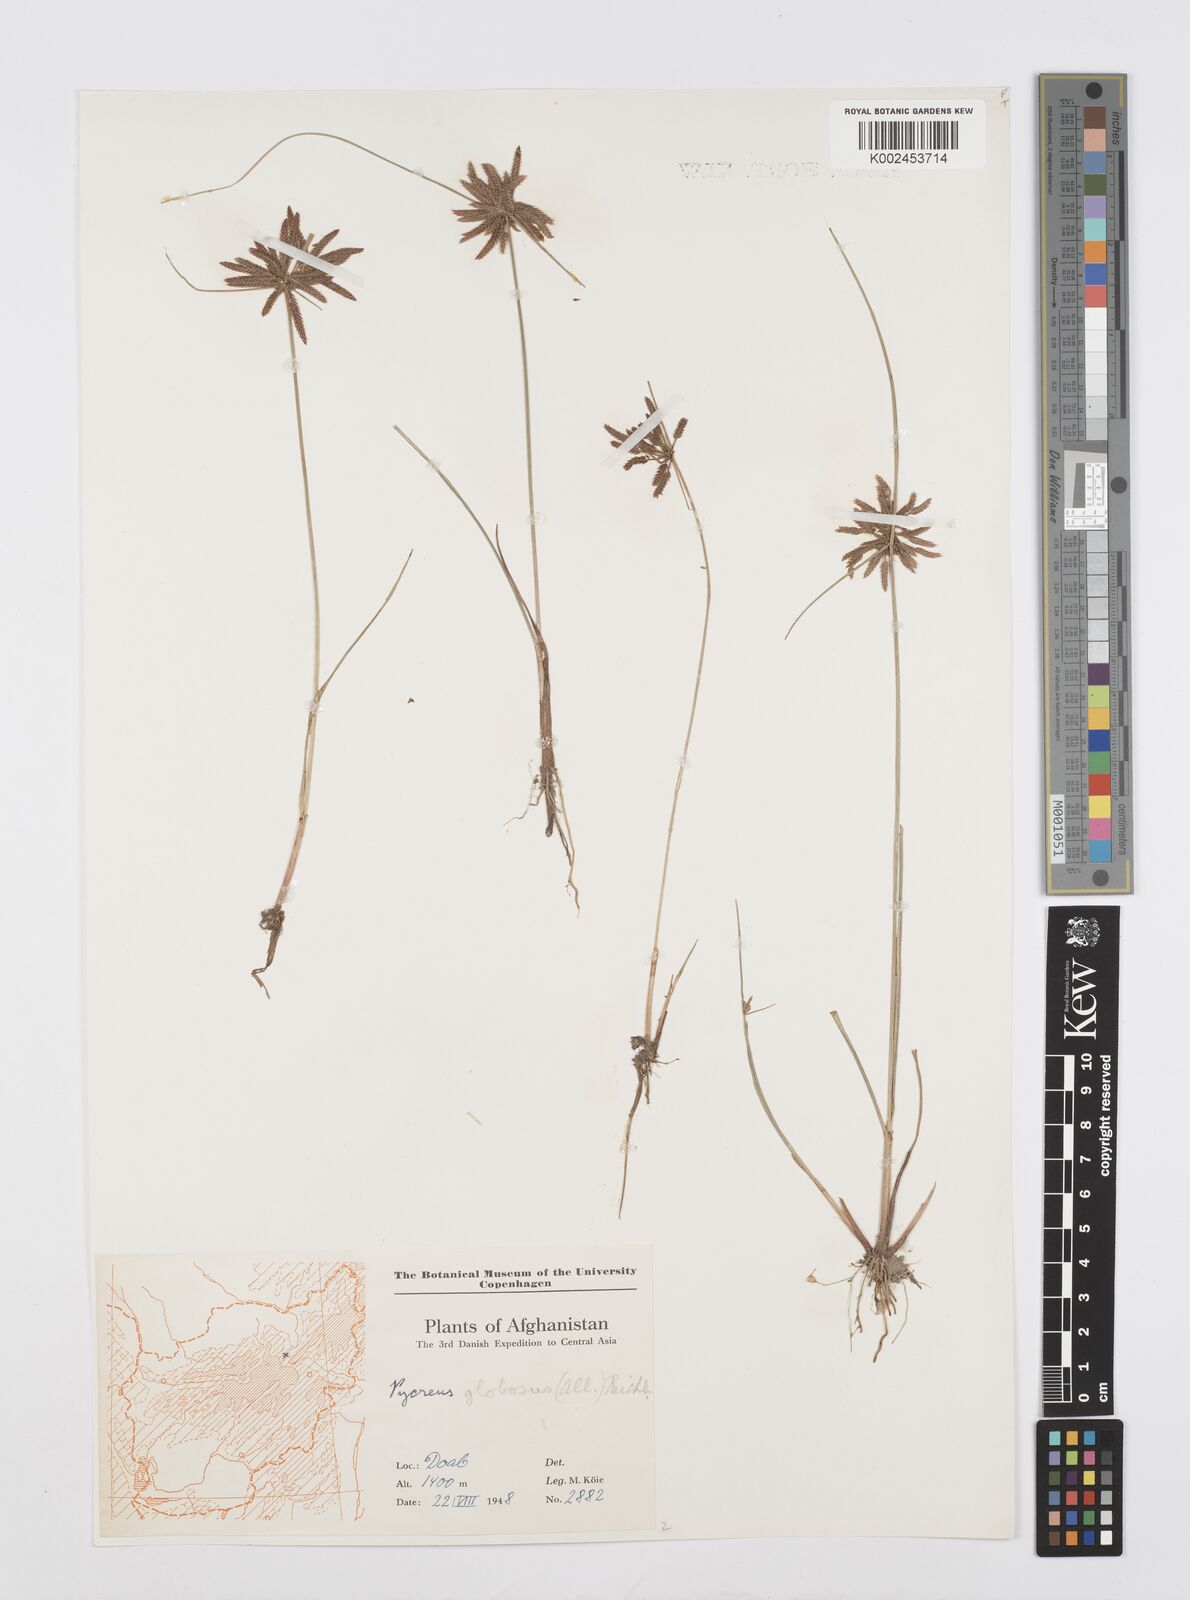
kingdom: Plantae
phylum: Tracheophyta
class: Liliopsida
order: Poales
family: Cyperaceae
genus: Cyperus
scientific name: Cyperus flavidus
